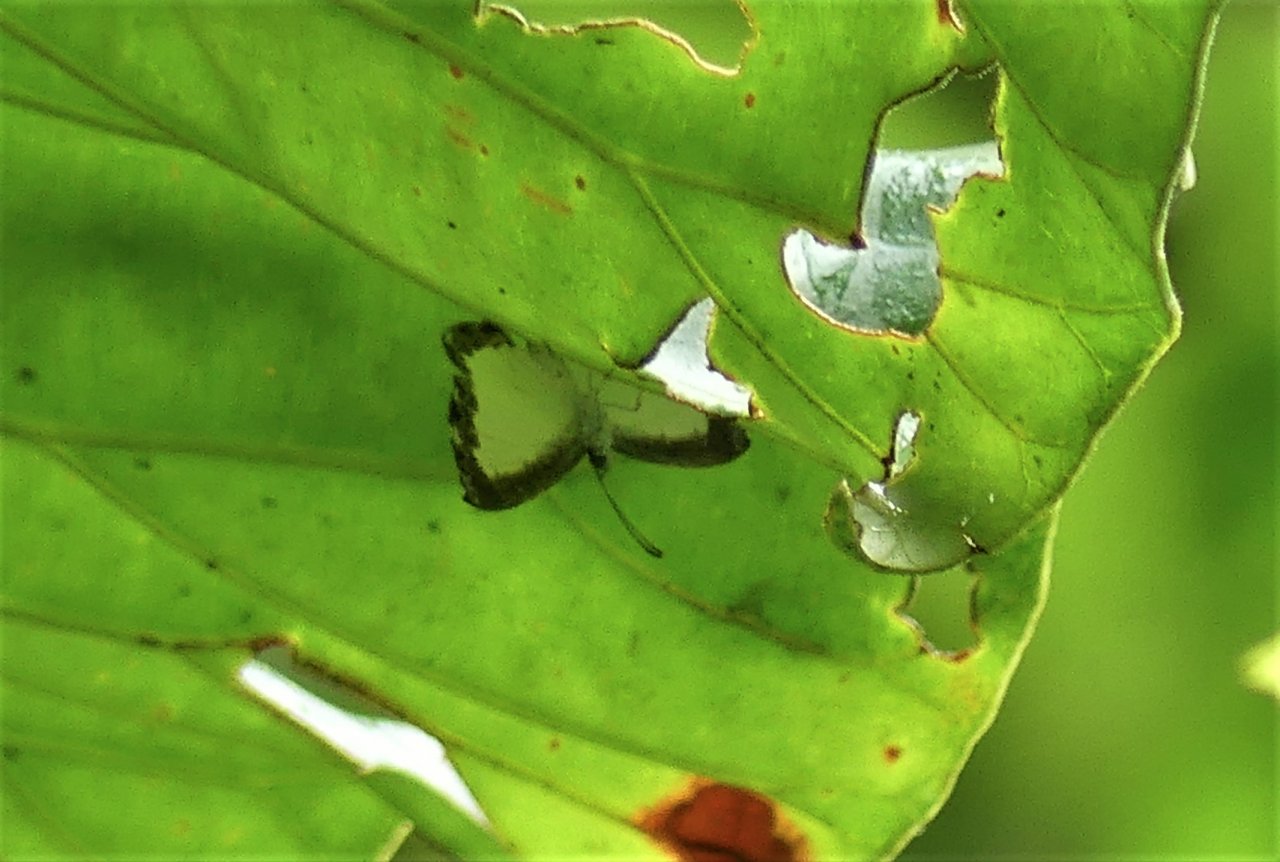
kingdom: Animalia
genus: Nymphidium
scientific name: Nymphidium cachrus
